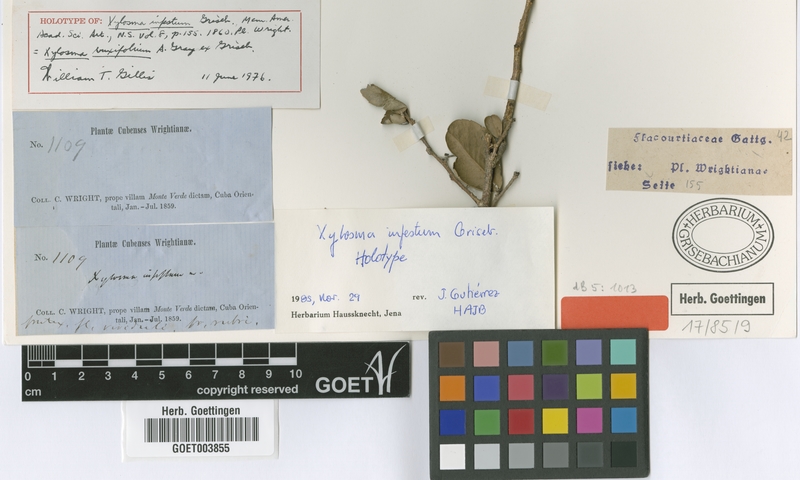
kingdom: Plantae
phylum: Tracheophyta
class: Magnoliopsida
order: Malpighiales
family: Salicaceae
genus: Xylosma
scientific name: Xylosma buxifolia
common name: Cockspur
